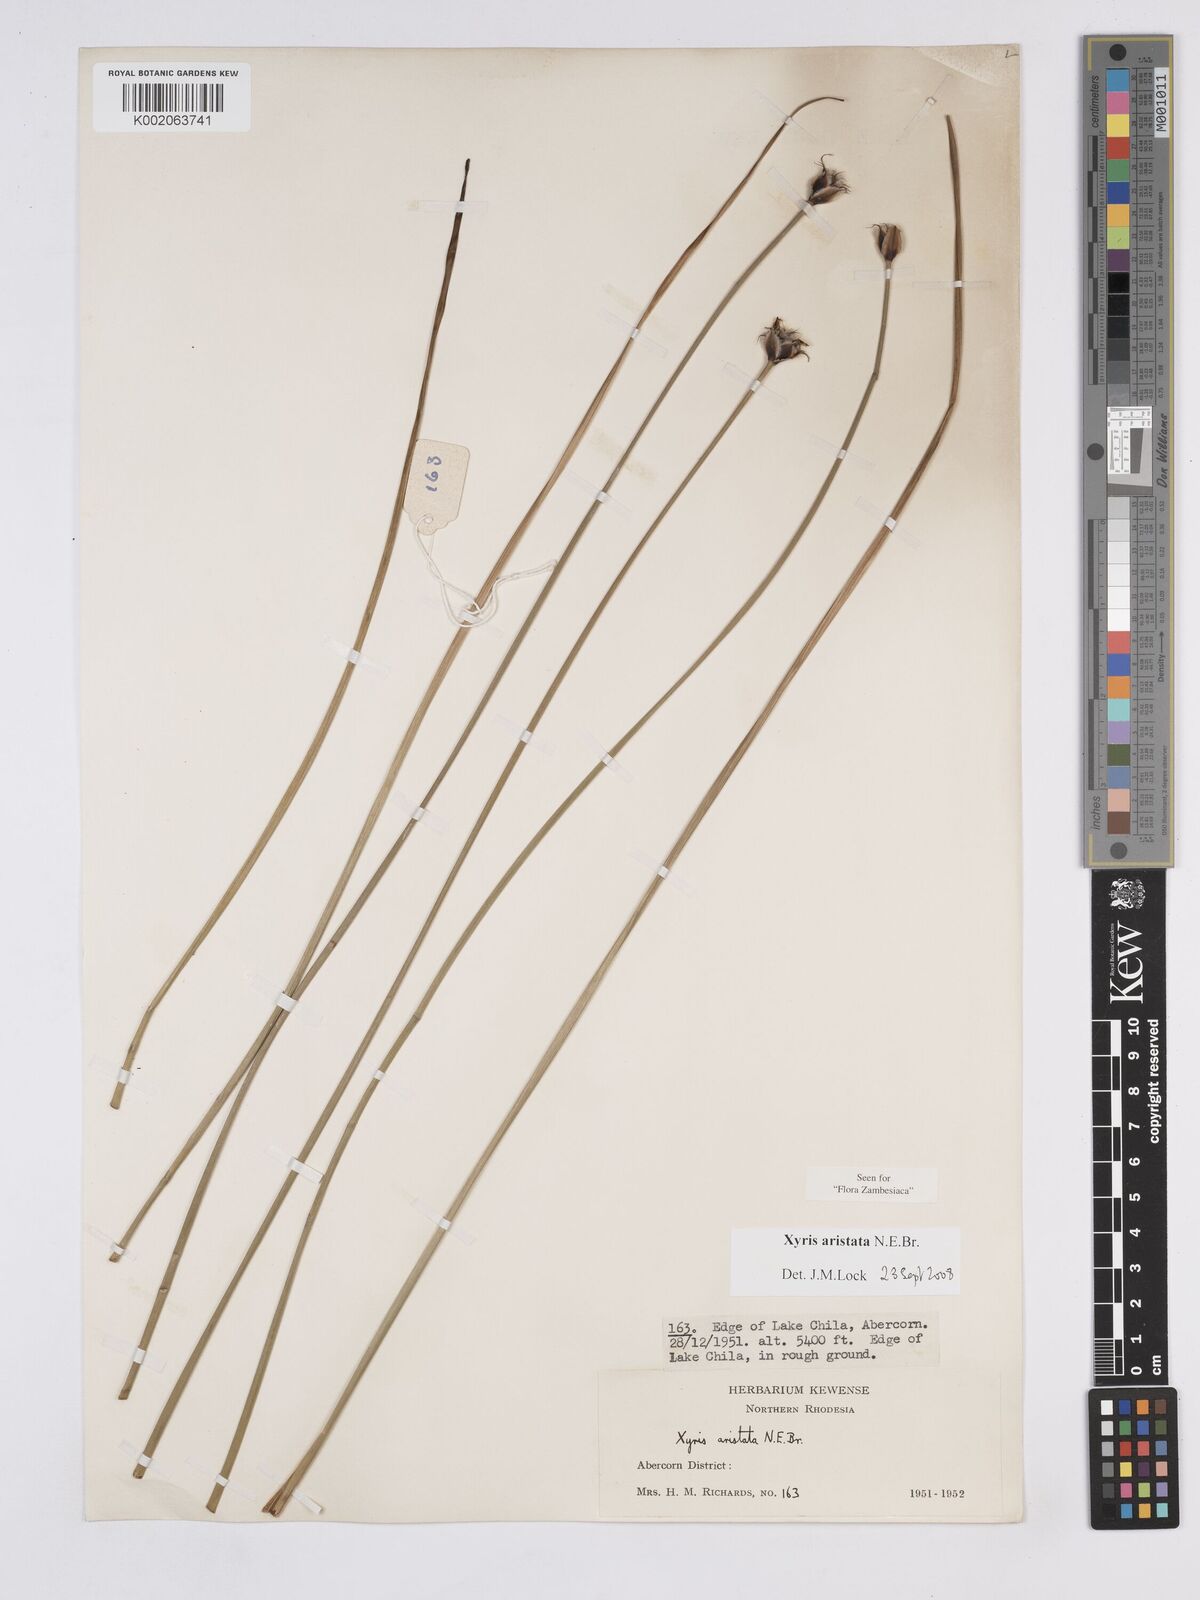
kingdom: Plantae
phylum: Tracheophyta
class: Liliopsida
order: Poales
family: Xyridaceae
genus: Xyris
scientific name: Xyris aristata
